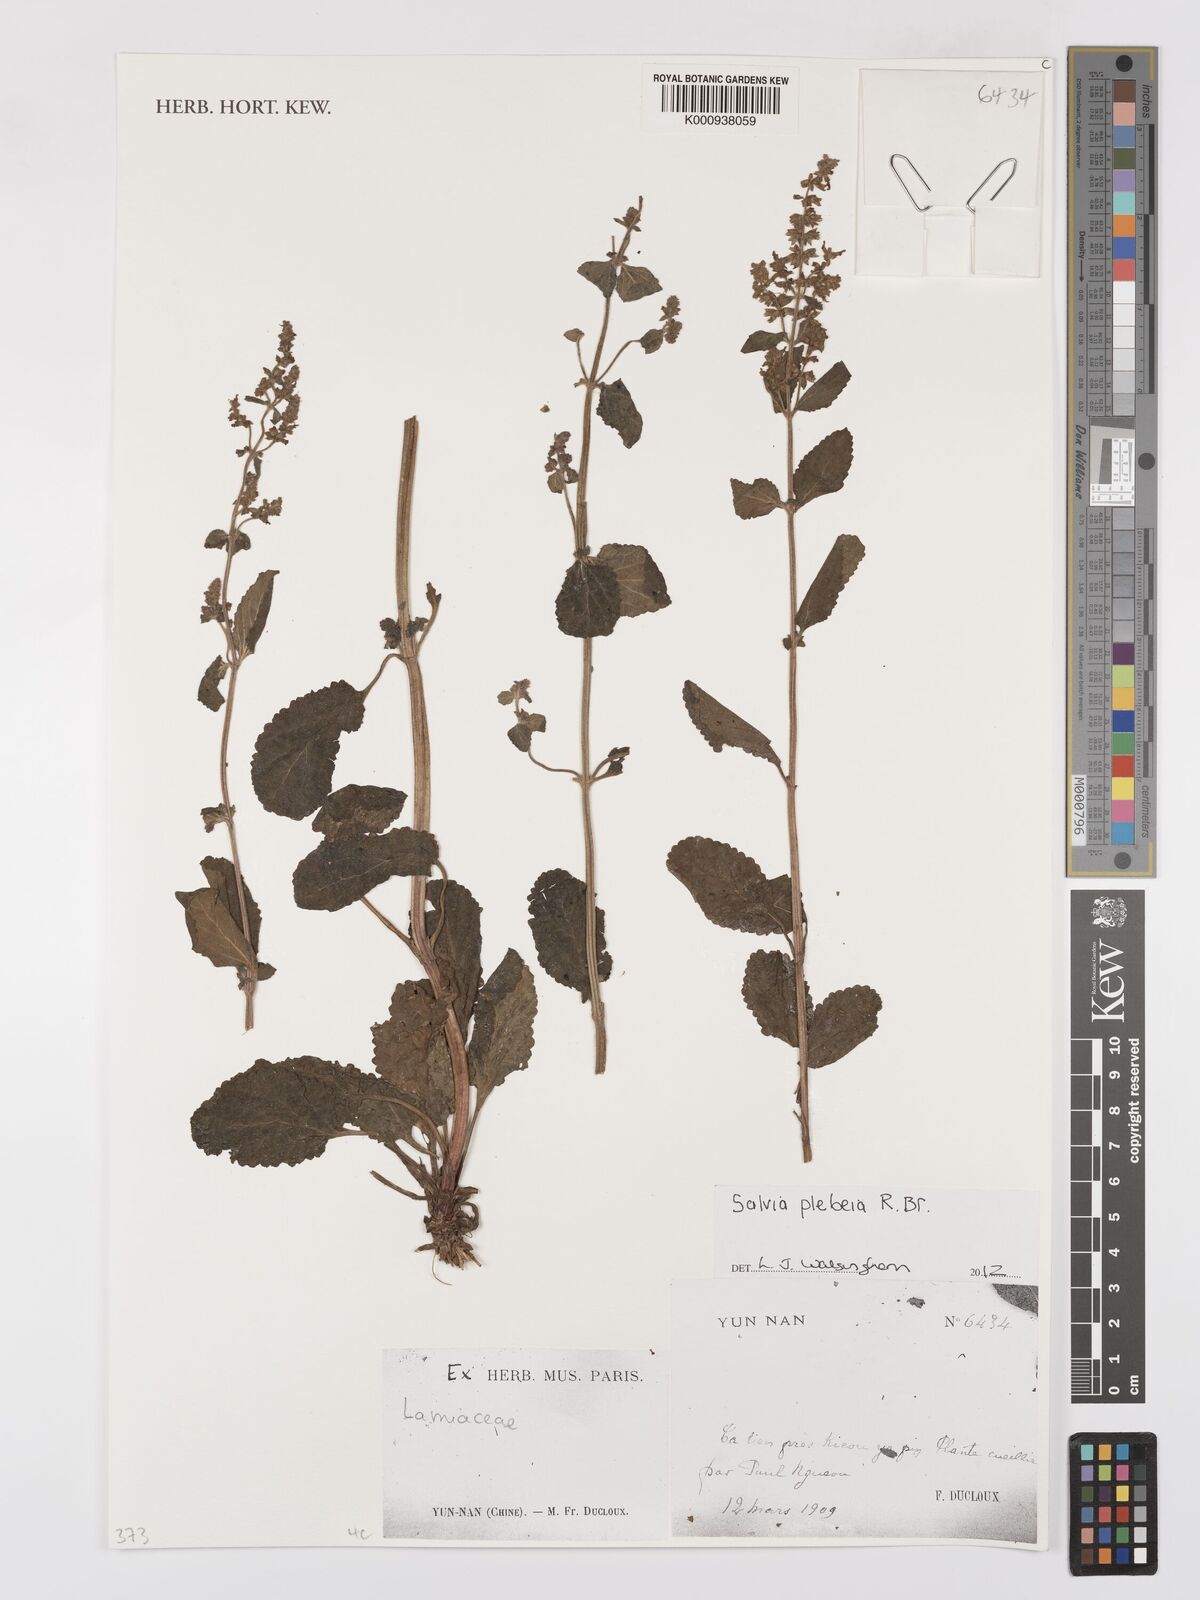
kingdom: Plantae
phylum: Tracheophyta
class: Magnoliopsida
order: Lamiales
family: Lamiaceae
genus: Salvia
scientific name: Salvia
